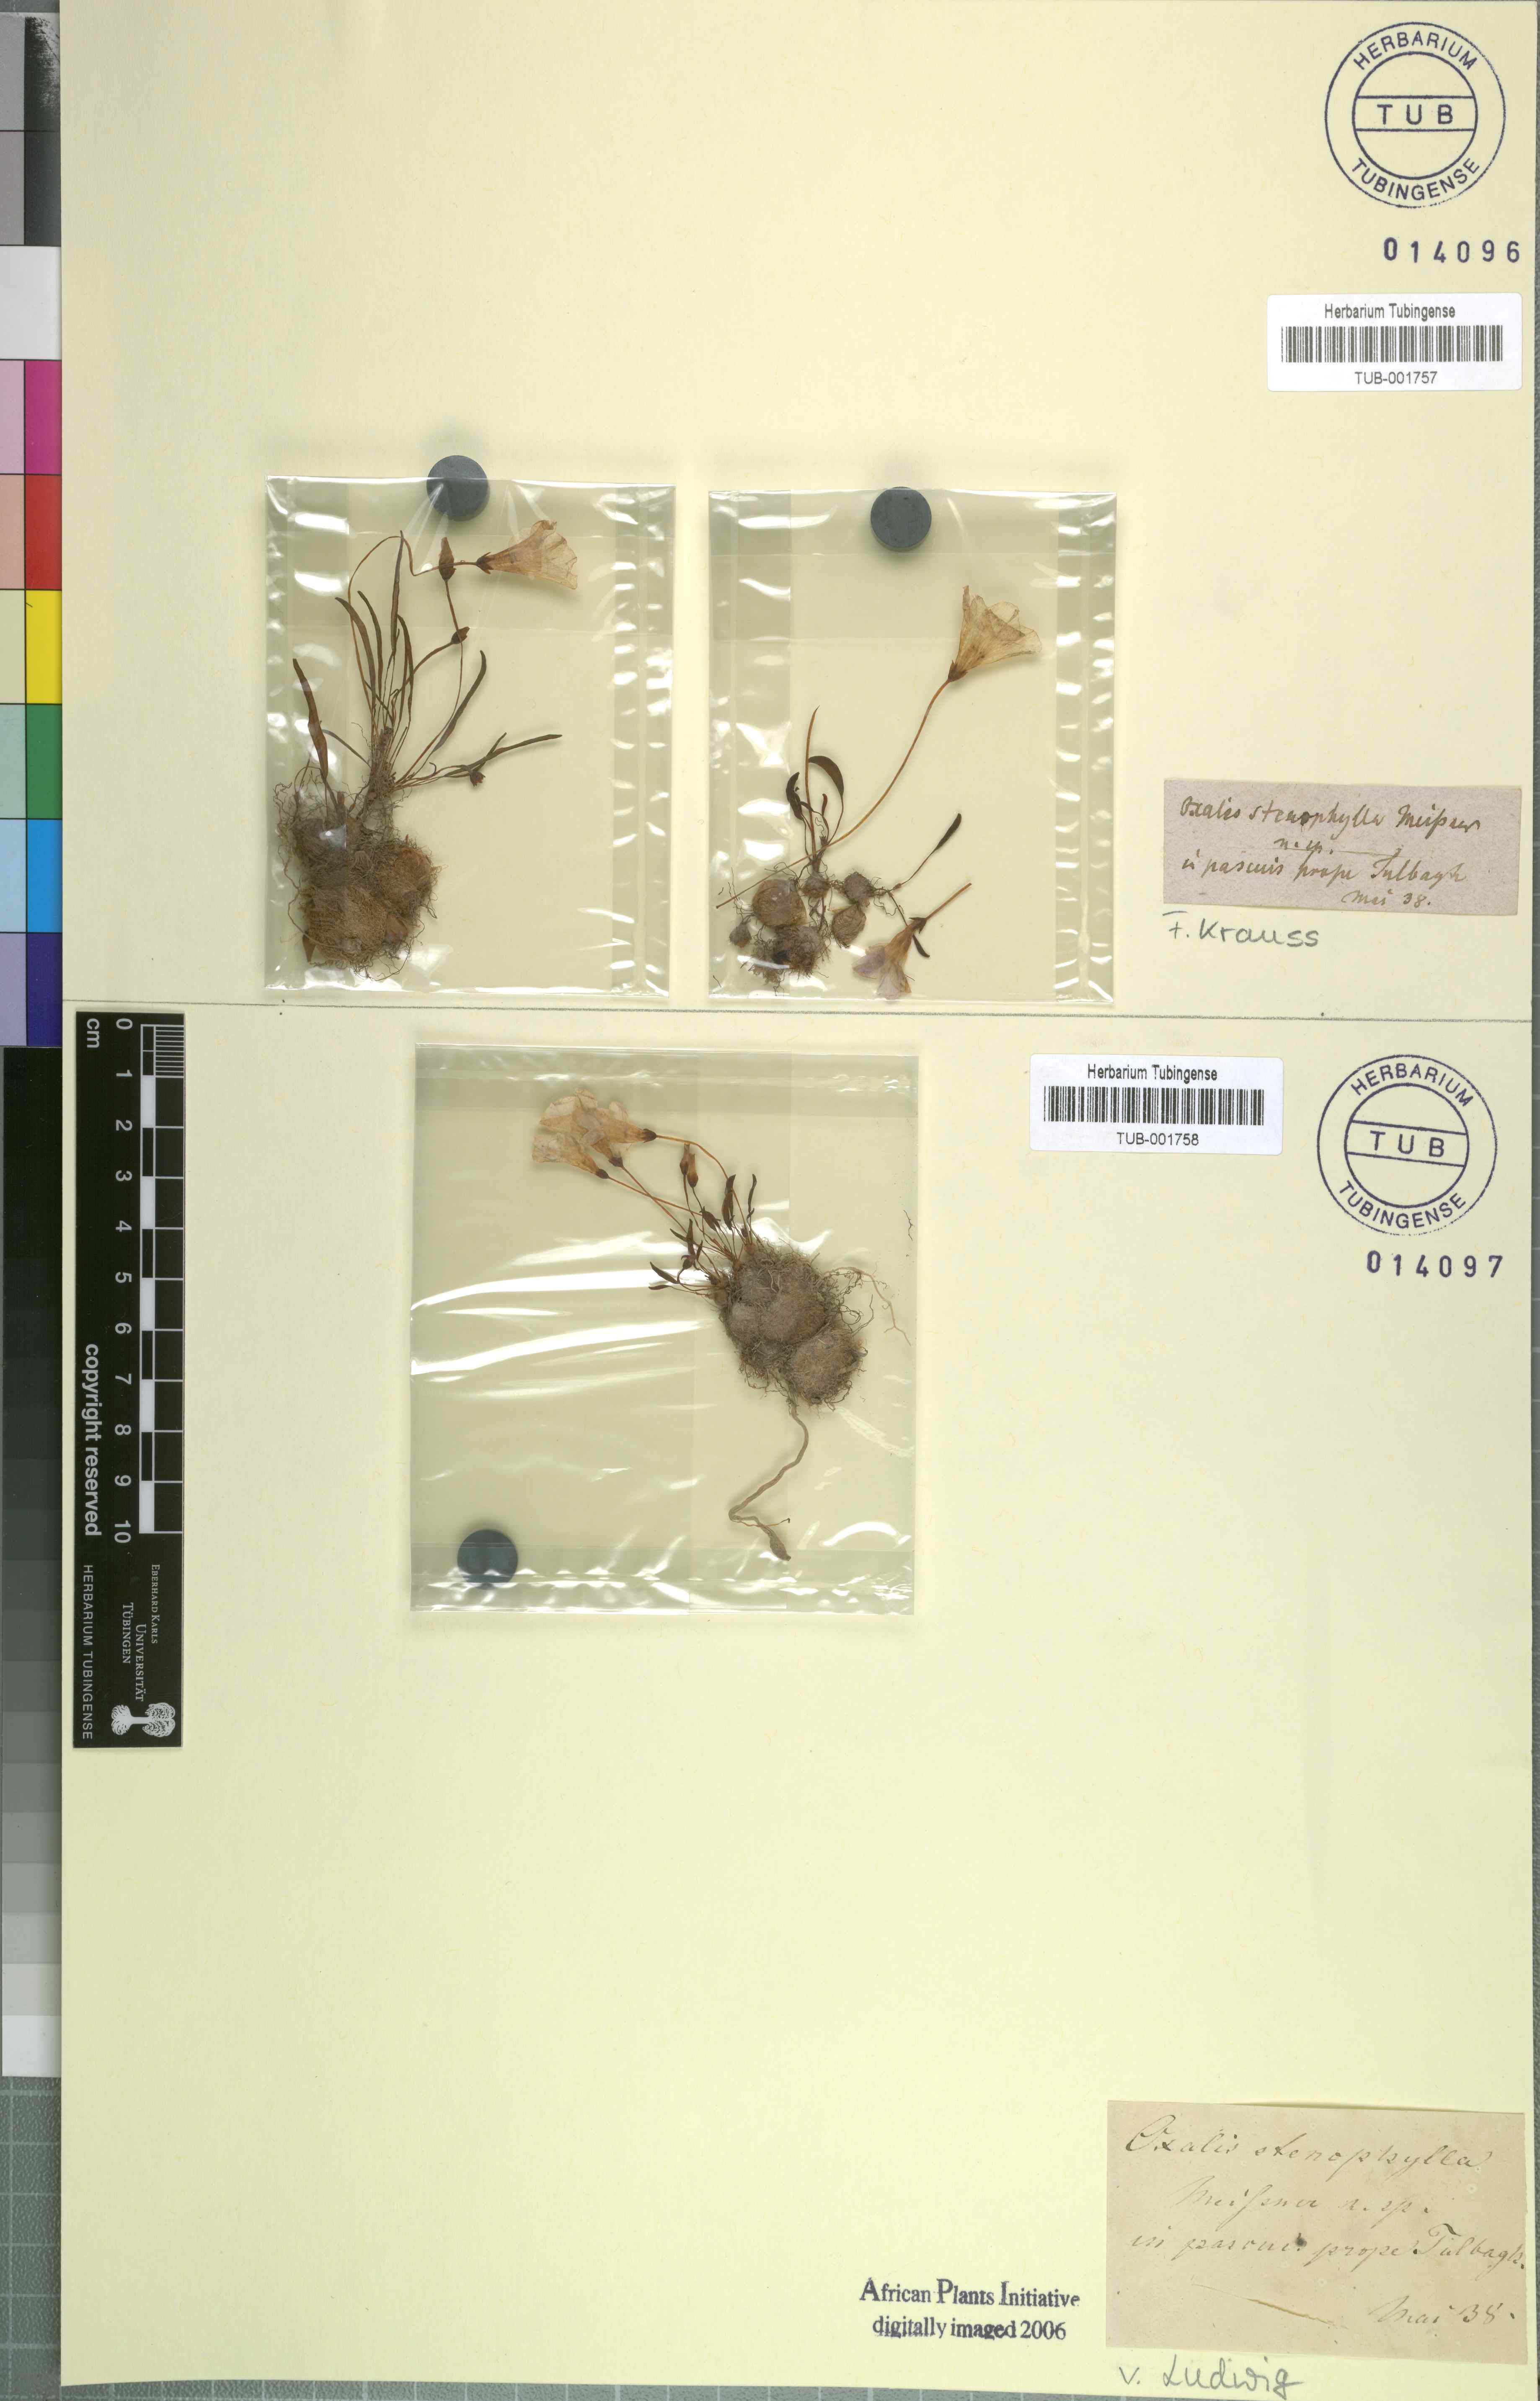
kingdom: Plantae
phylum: Tracheophyta
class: Magnoliopsida
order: Oxalidales
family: Oxalidaceae
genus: Oxalis
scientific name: Oxalis monophylla
